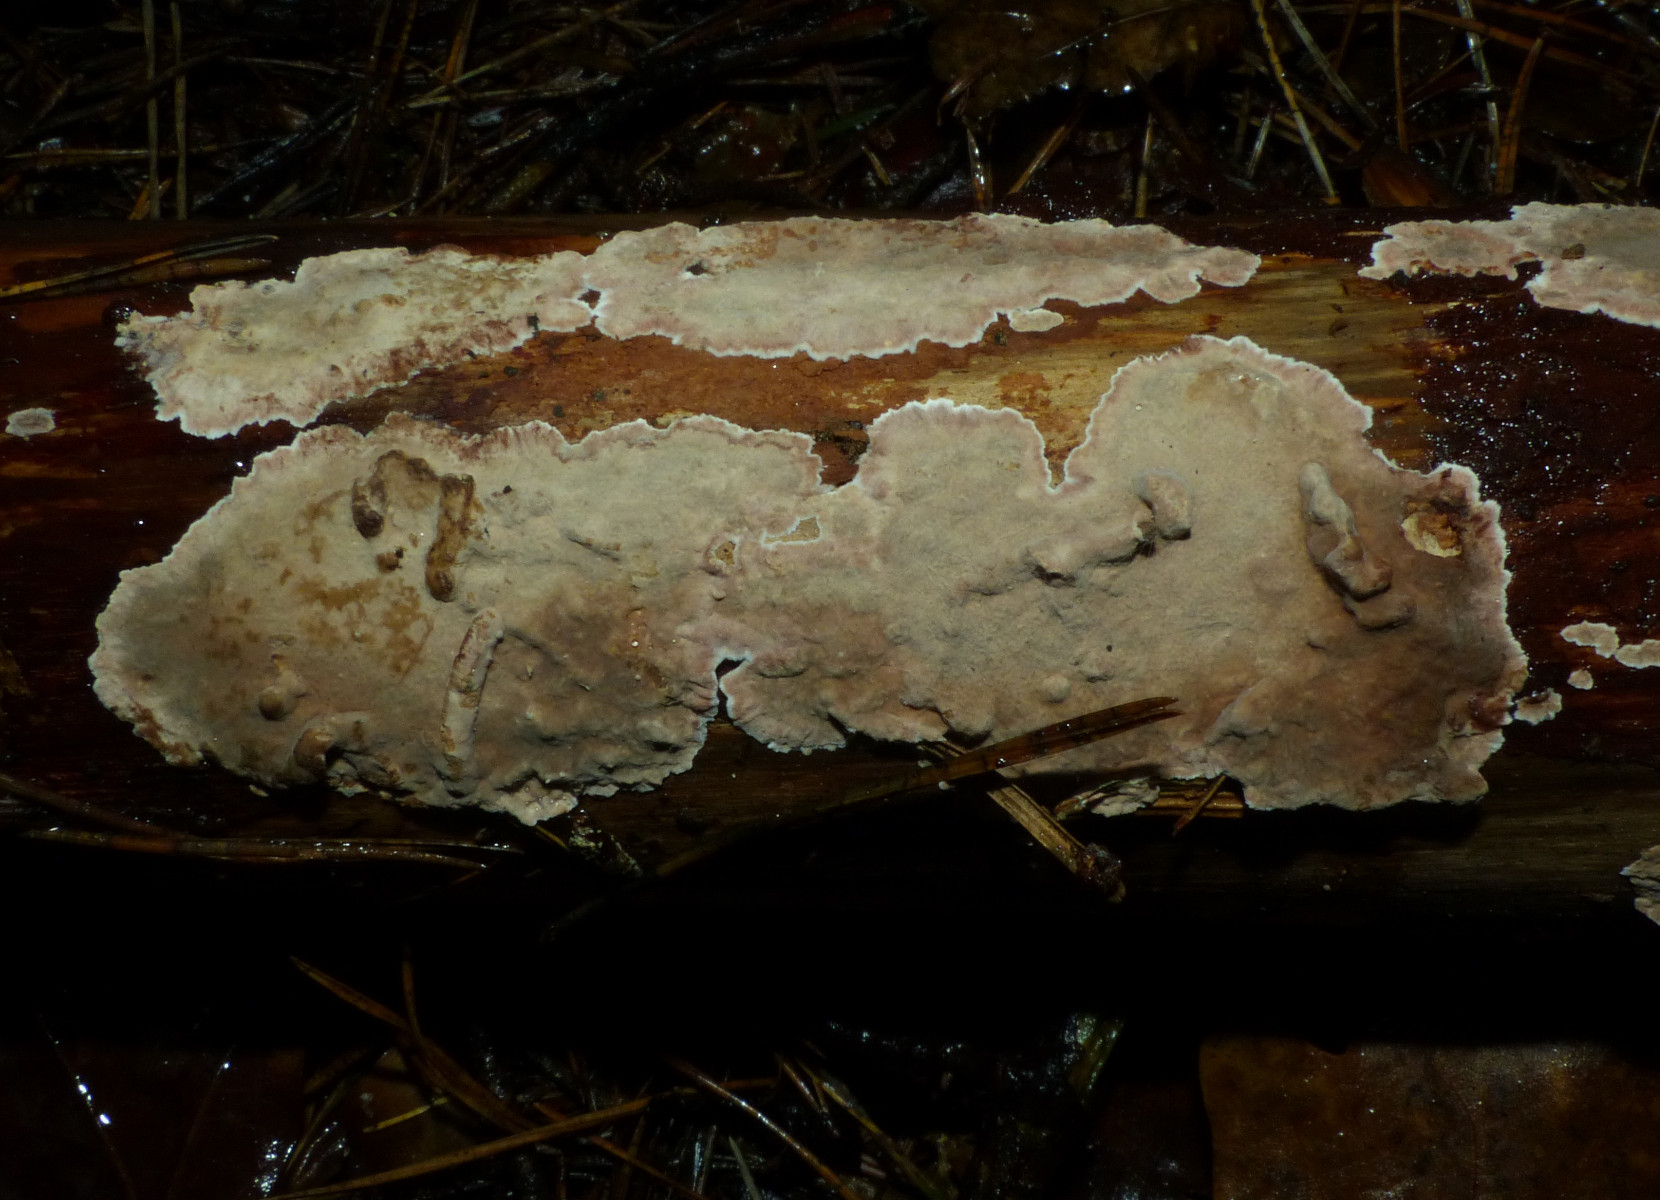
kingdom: Fungi
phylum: Basidiomycota
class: Agaricomycetes
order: Russulales
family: Echinodontiaceae
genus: Amylostereum
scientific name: Amylostereum chailletii
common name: gran-lædersvamp
